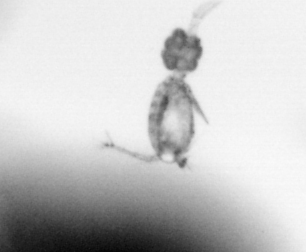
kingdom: Animalia
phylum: Arthropoda
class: Copepoda
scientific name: Copepoda
